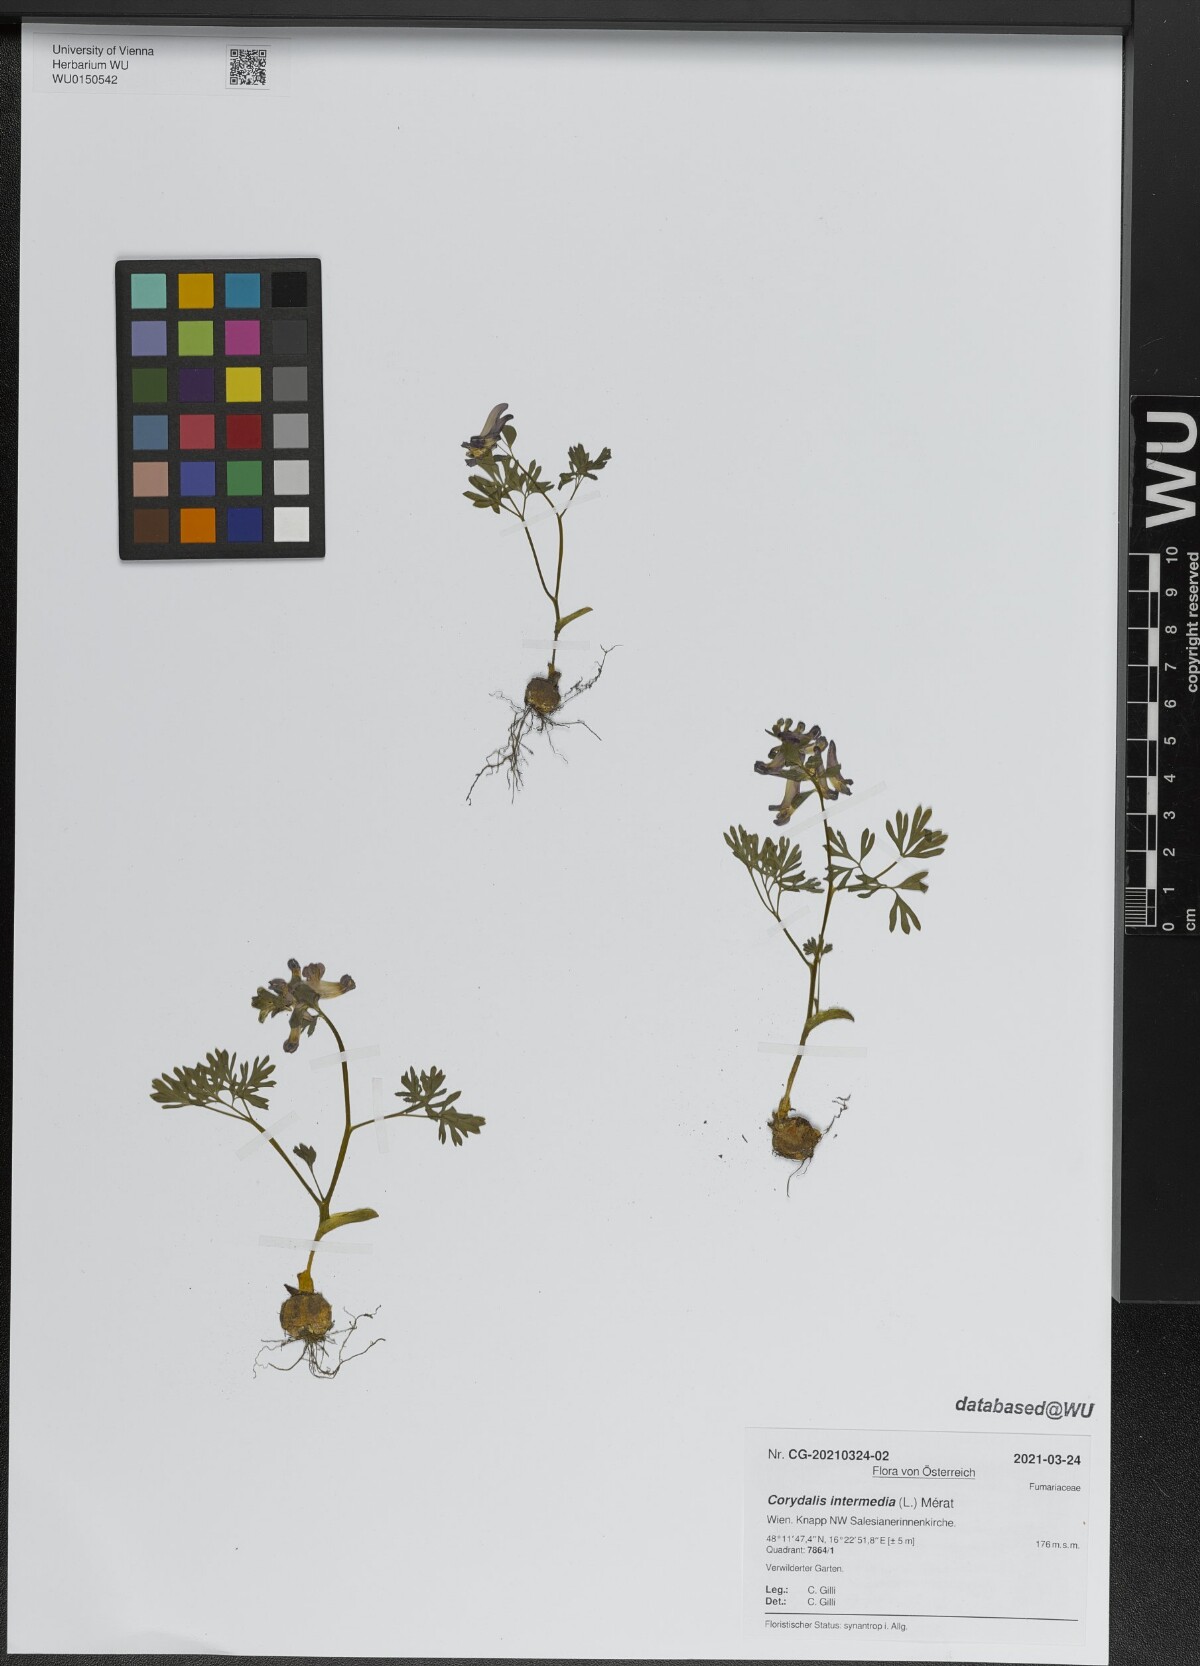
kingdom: Plantae
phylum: Tracheophyta
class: Magnoliopsida
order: Ranunculales
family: Papaveraceae
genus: Corydalis
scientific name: Corydalis intermedia
